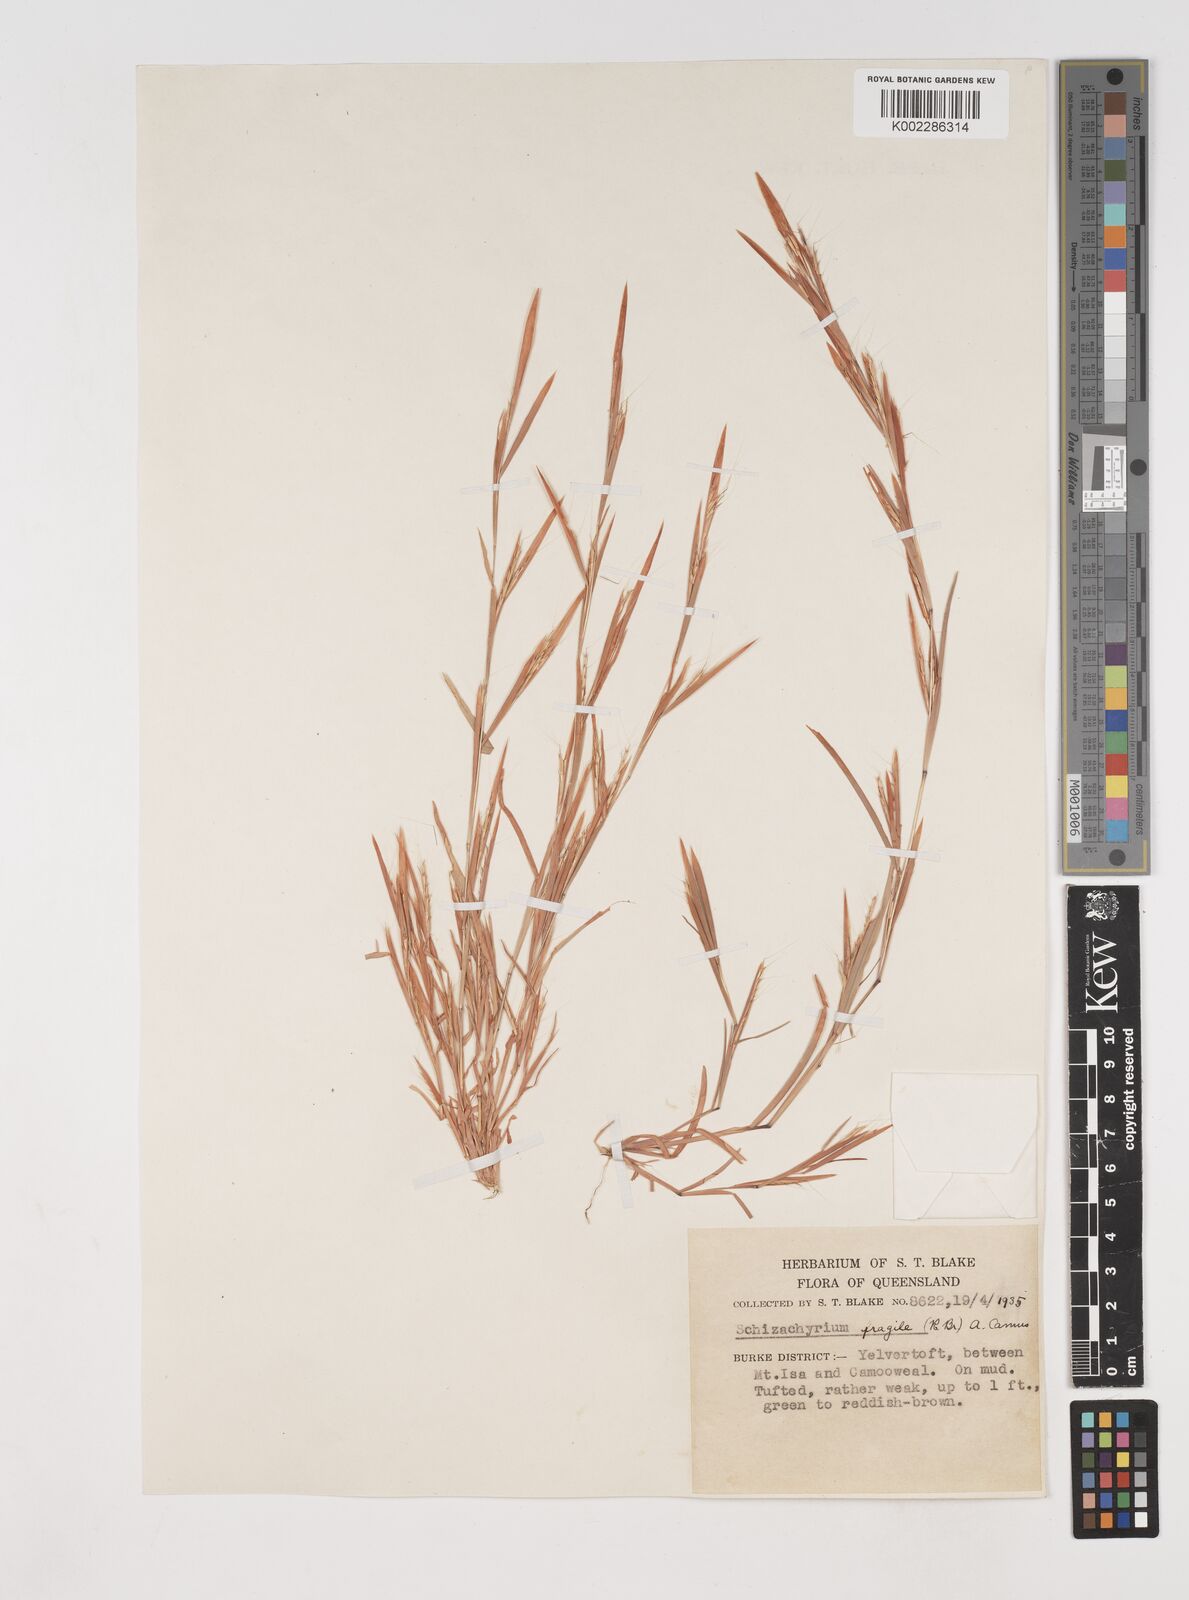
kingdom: Plantae
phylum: Tracheophyta
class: Liliopsida
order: Poales
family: Poaceae
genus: Schizachyrium
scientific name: Schizachyrium
